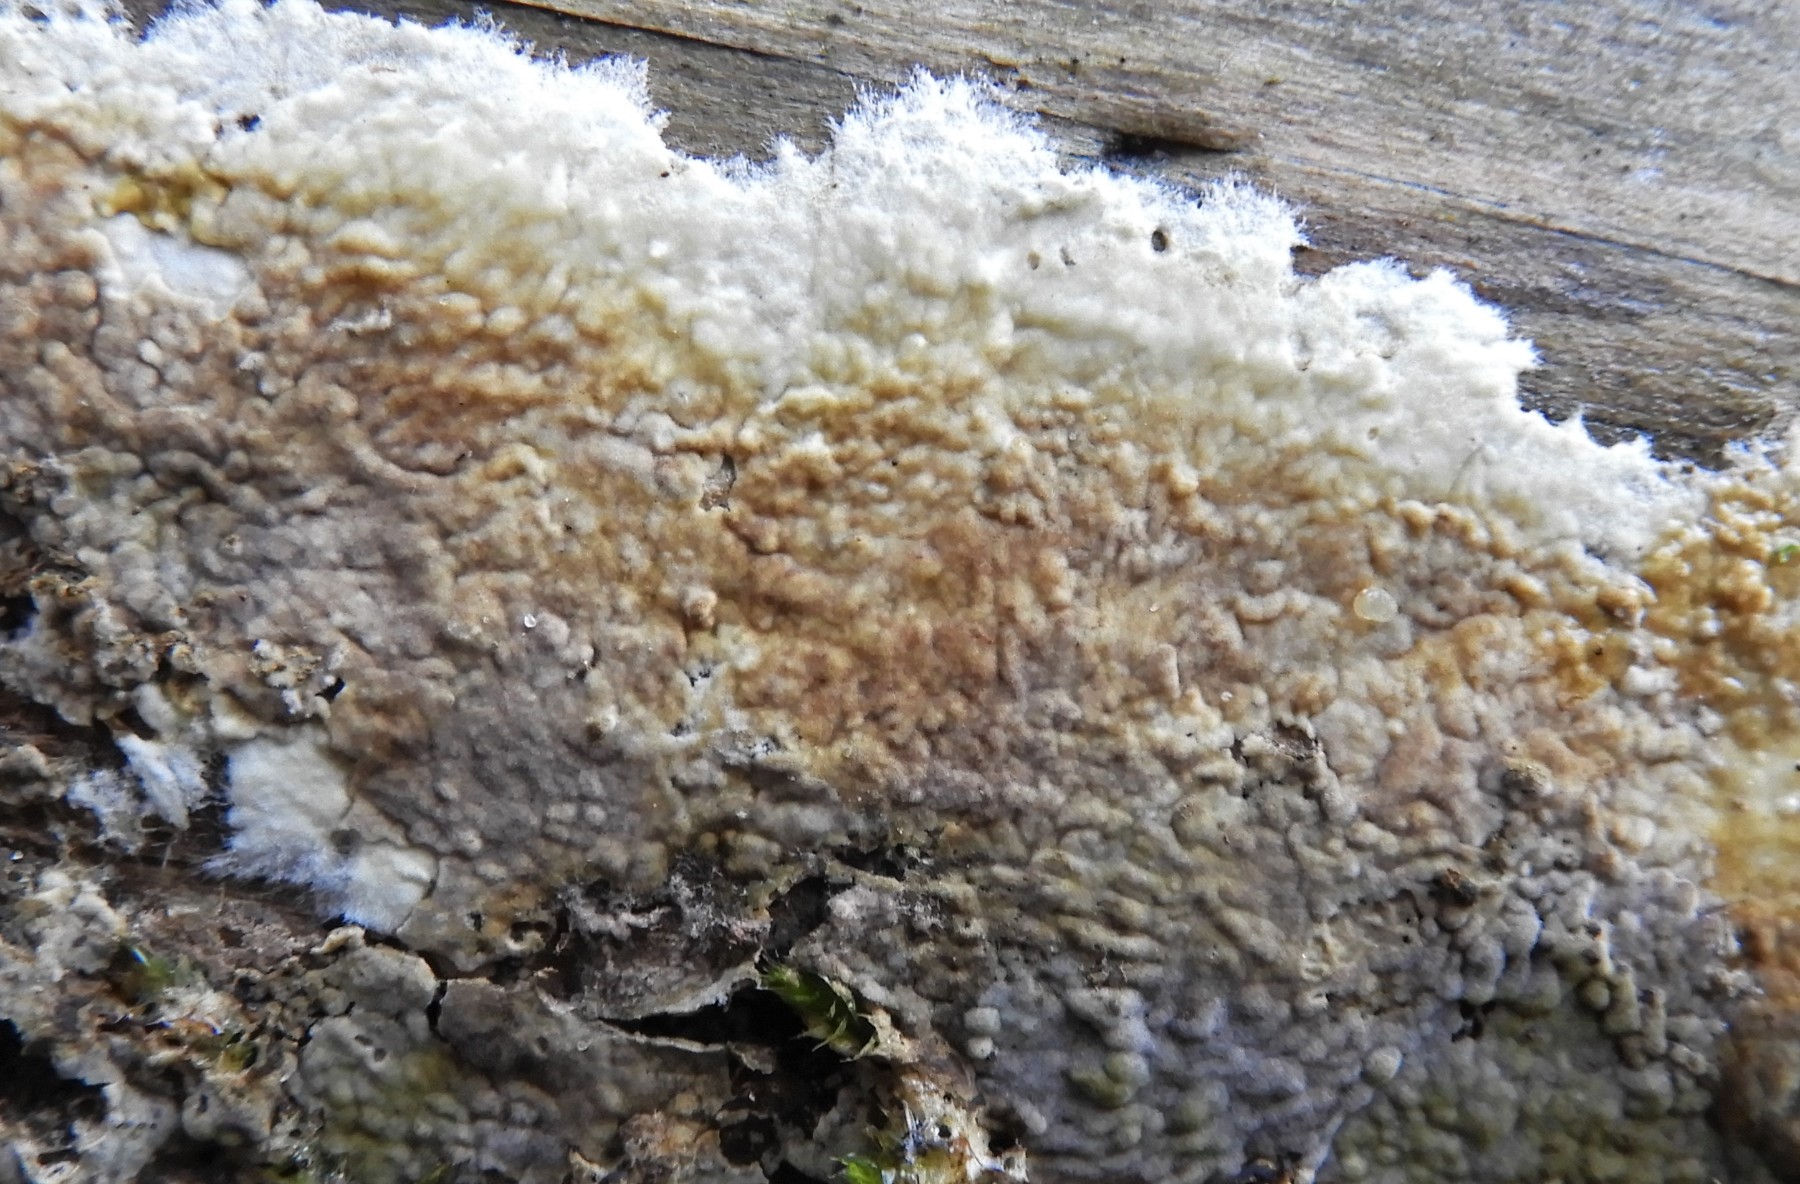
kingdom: Fungi
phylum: Basidiomycota
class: Agaricomycetes
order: Boletales
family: Coniophoraceae
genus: Coniophora
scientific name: Coniophora puteana
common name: gul tømmersvamp
